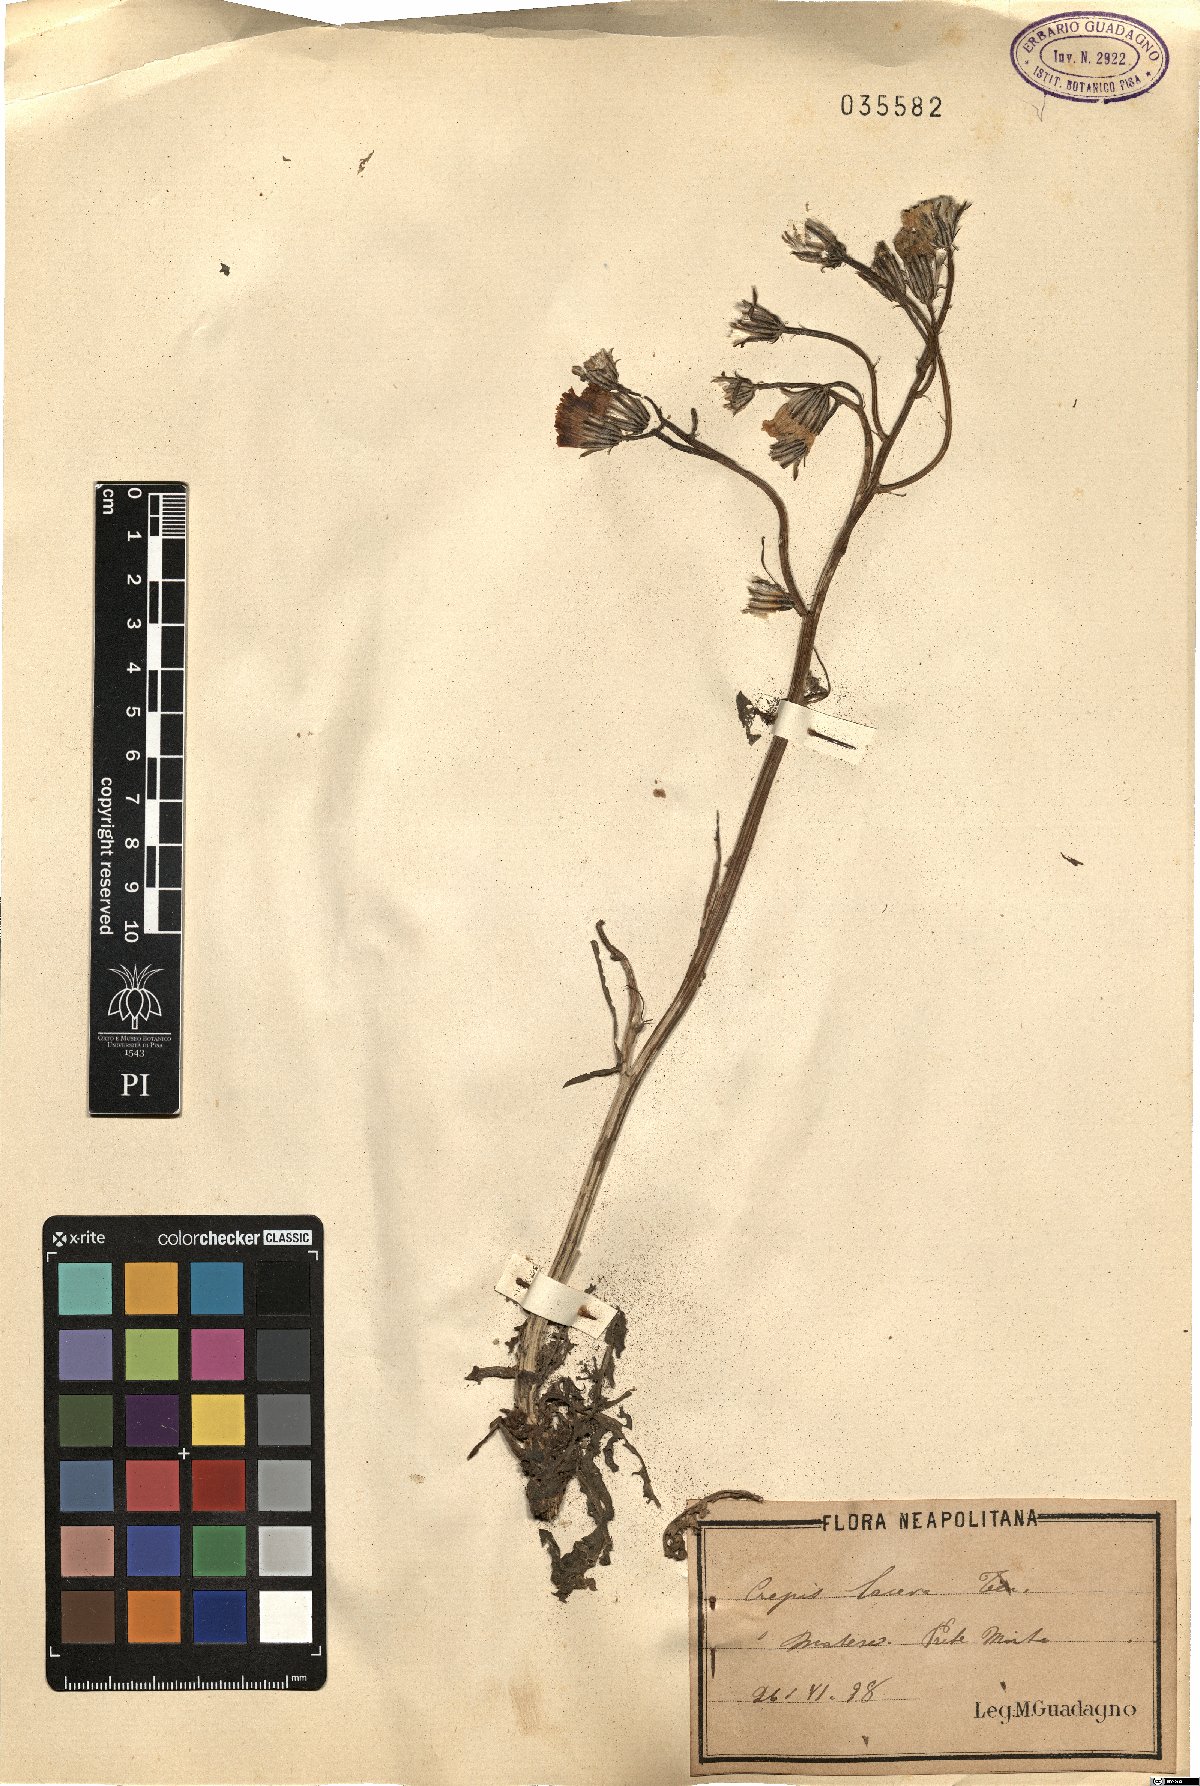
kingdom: Plantae
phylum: Tracheophyta
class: Magnoliopsida
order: Asterales
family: Asteraceae
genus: Crepis
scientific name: Crepis lacera
